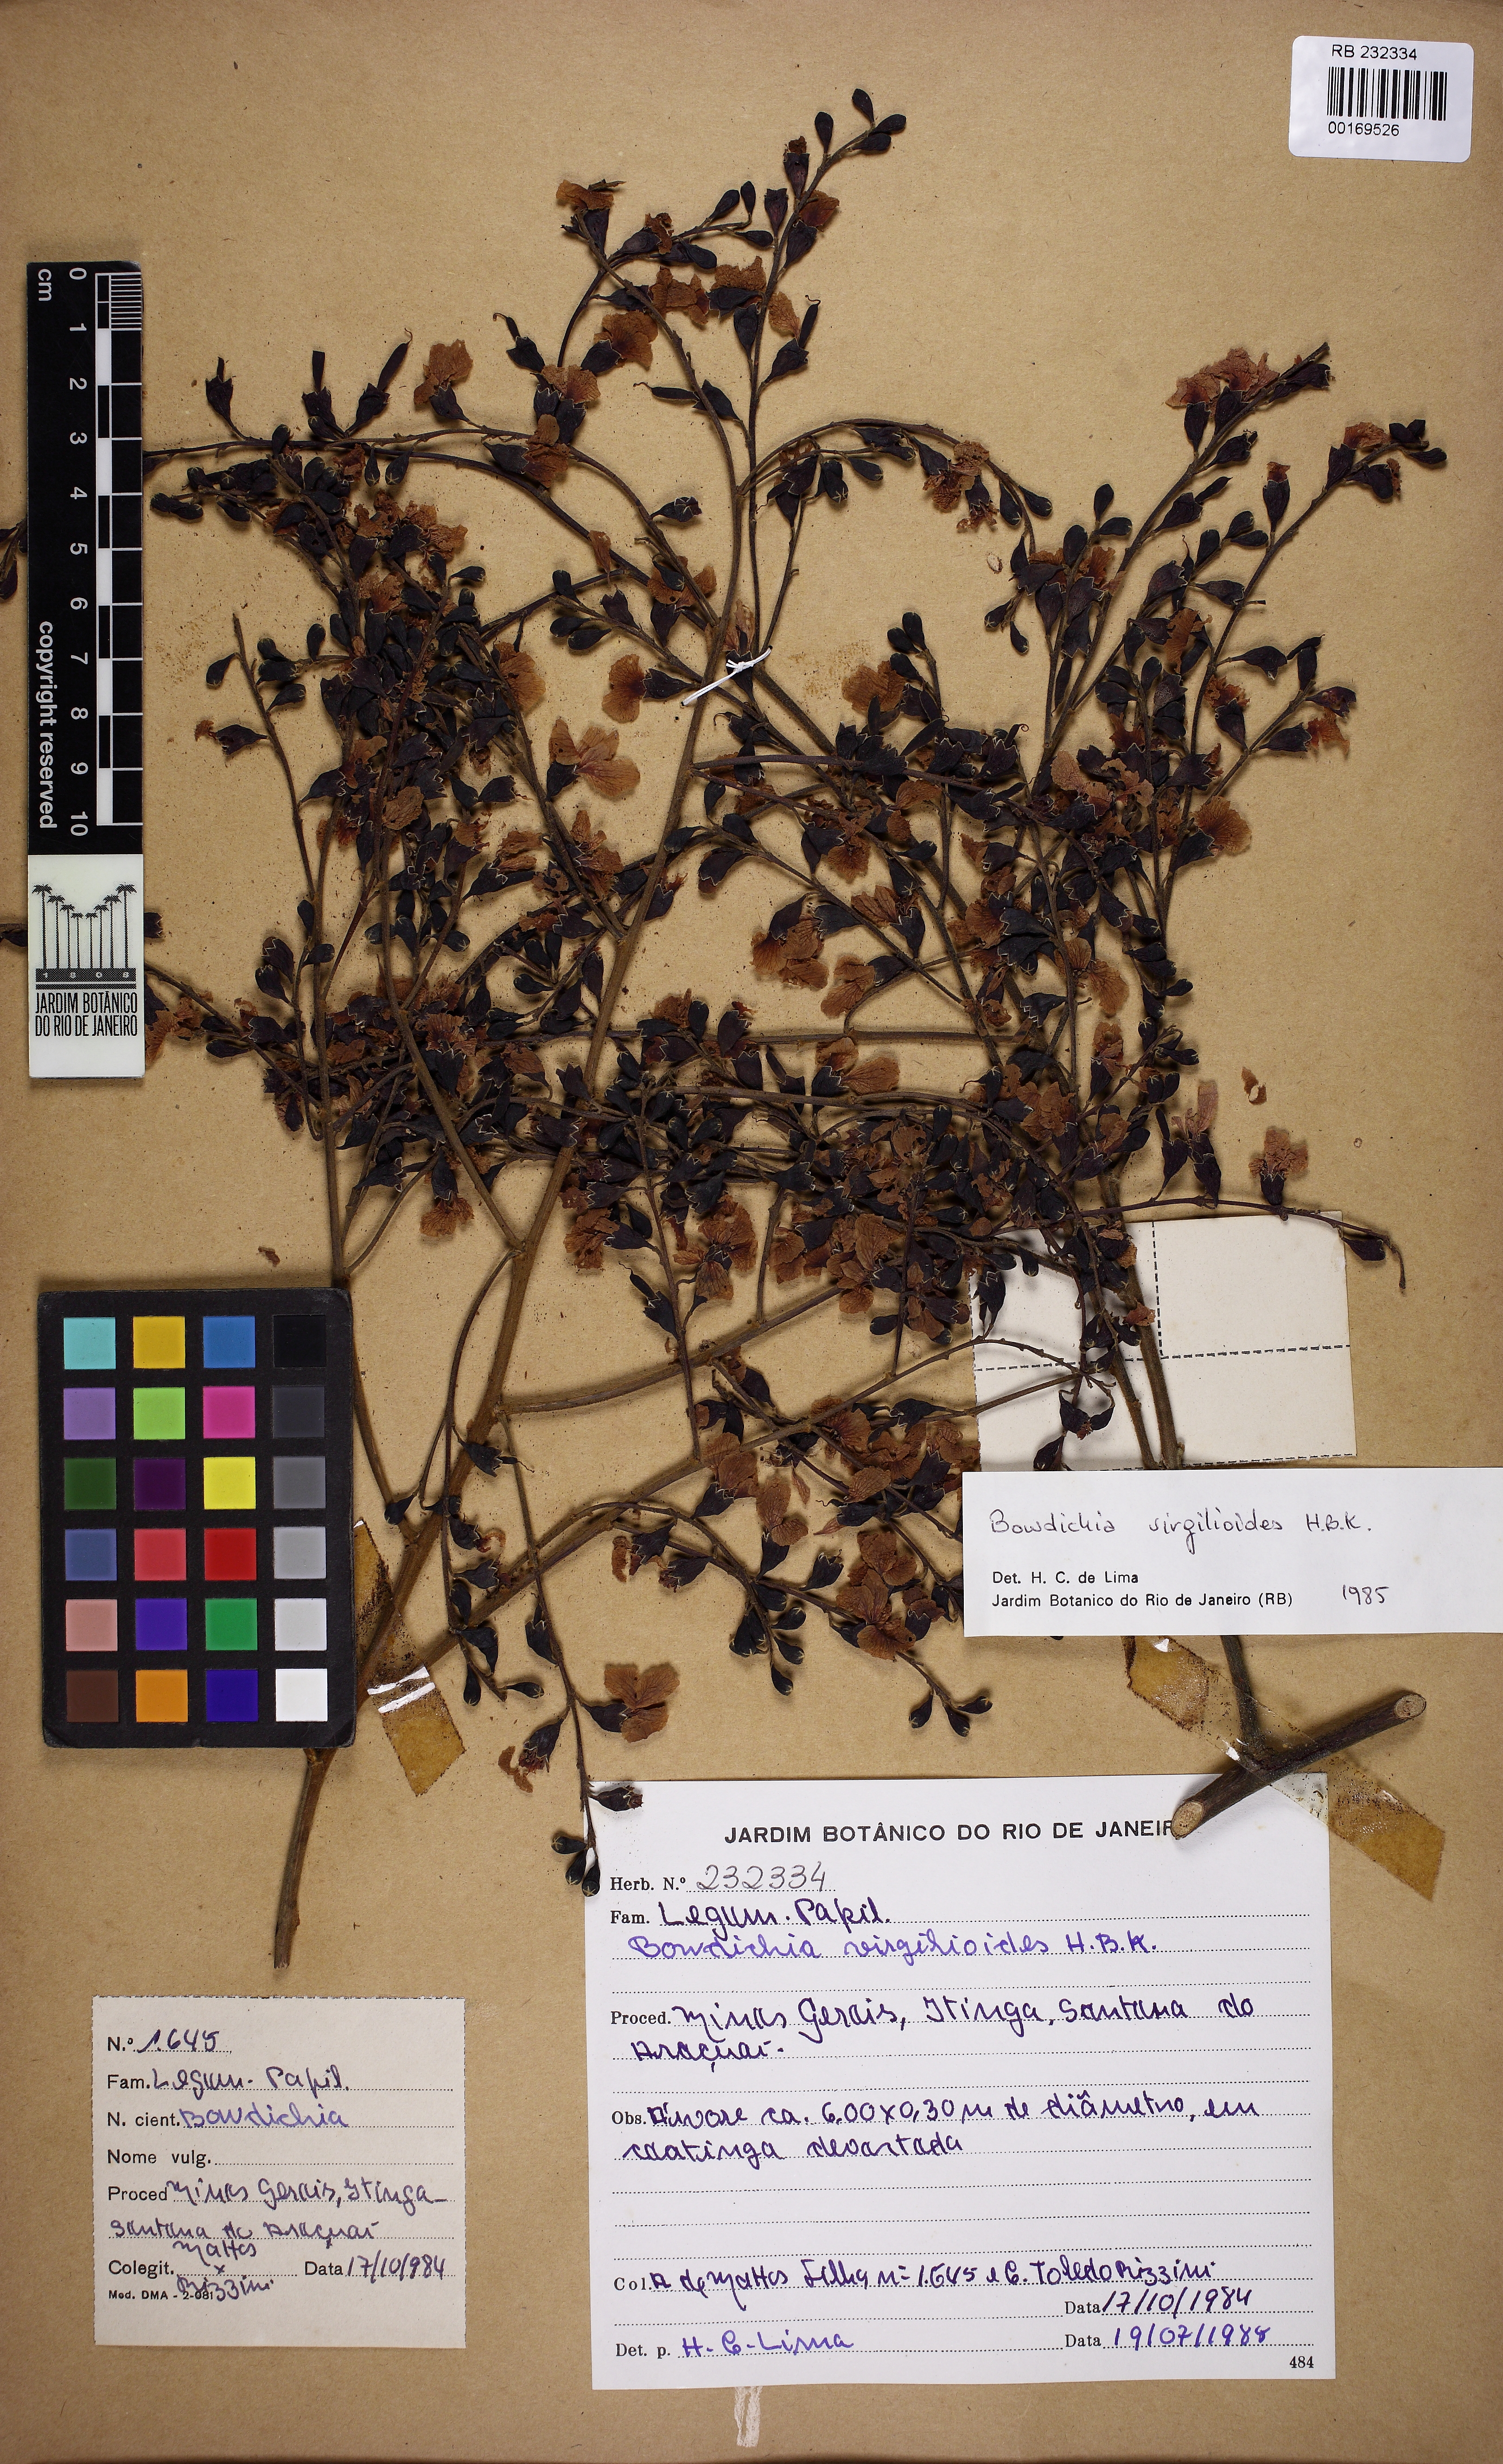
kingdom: Plantae
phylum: Tracheophyta
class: Magnoliopsida
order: Fabales
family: Fabaceae
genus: Bowdichia
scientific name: Bowdichia virgilioides
